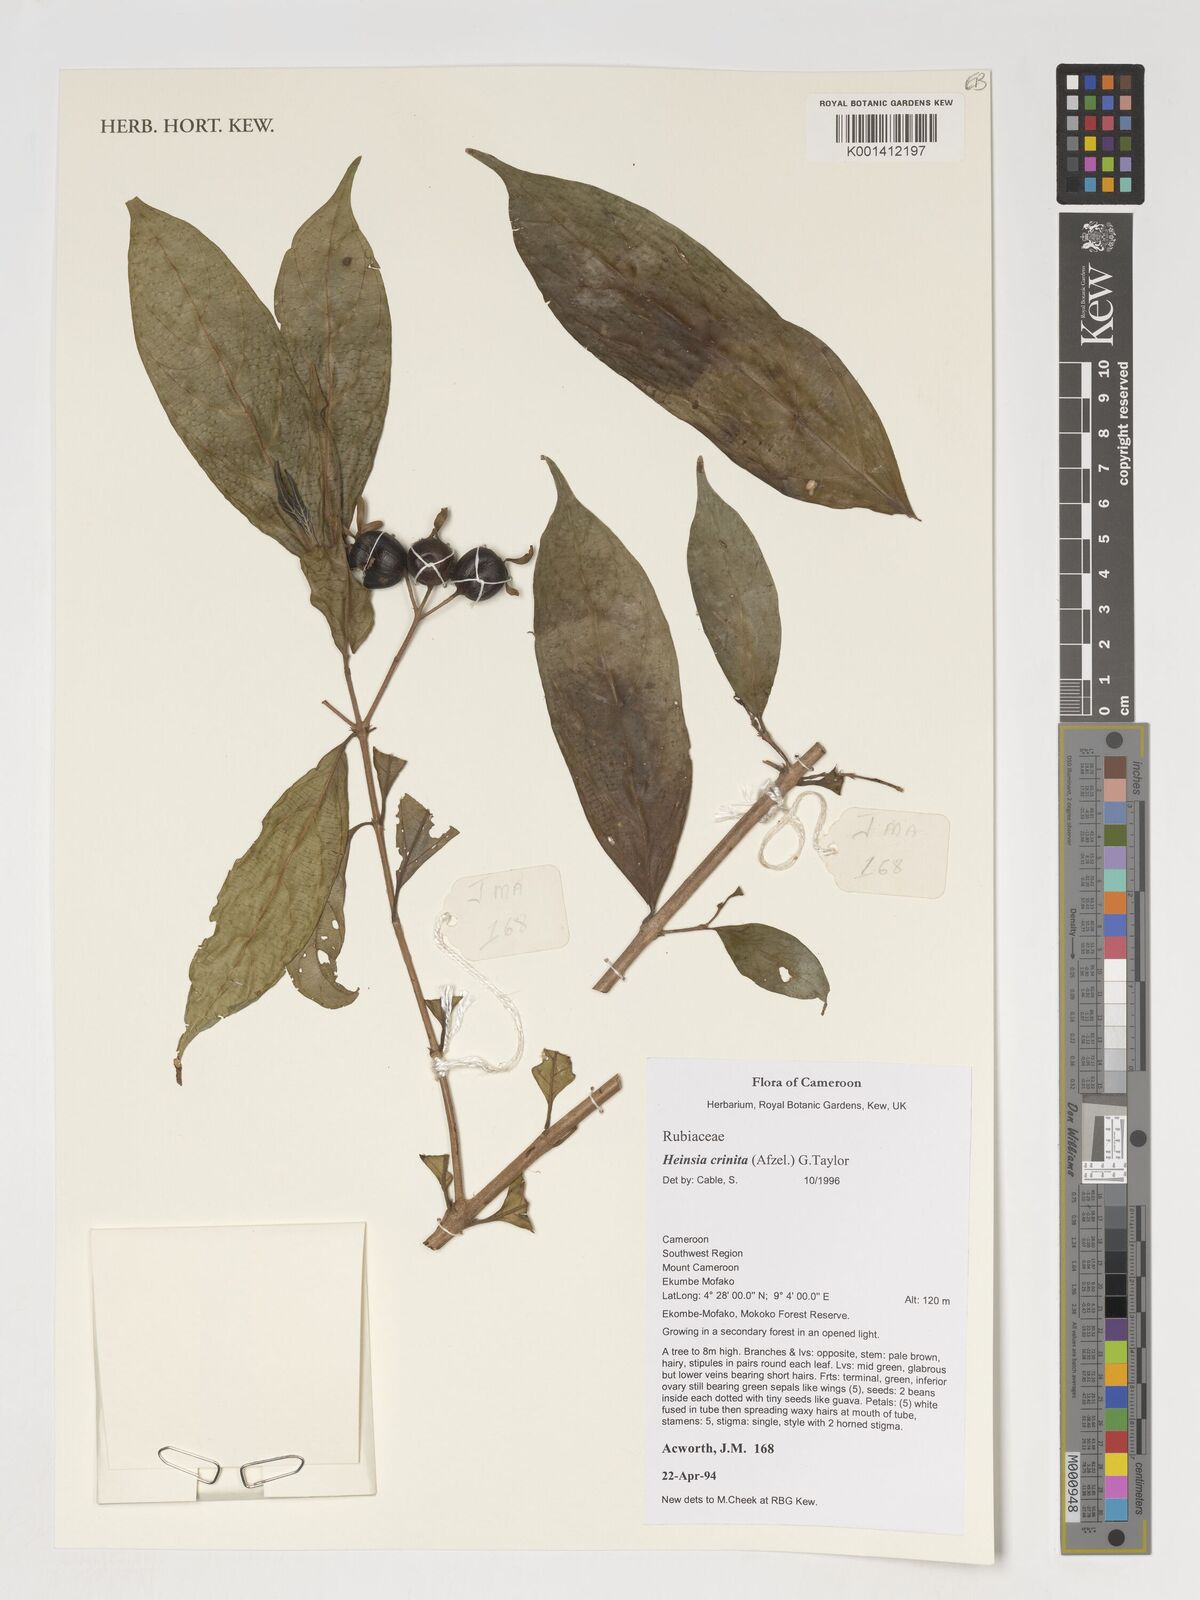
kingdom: Plantae
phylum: Tracheophyta
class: Magnoliopsida
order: Gentianales
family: Rubiaceae
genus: Heinsia
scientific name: Heinsia crinita
